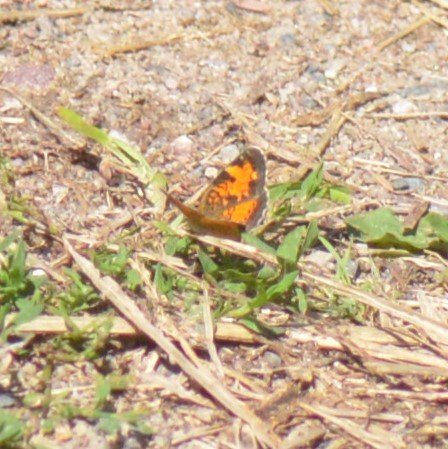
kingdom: Animalia
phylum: Arthropoda
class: Insecta
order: Lepidoptera
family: Nymphalidae
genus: Phyciodes
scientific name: Phyciodes tharos
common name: Northern Crescent
